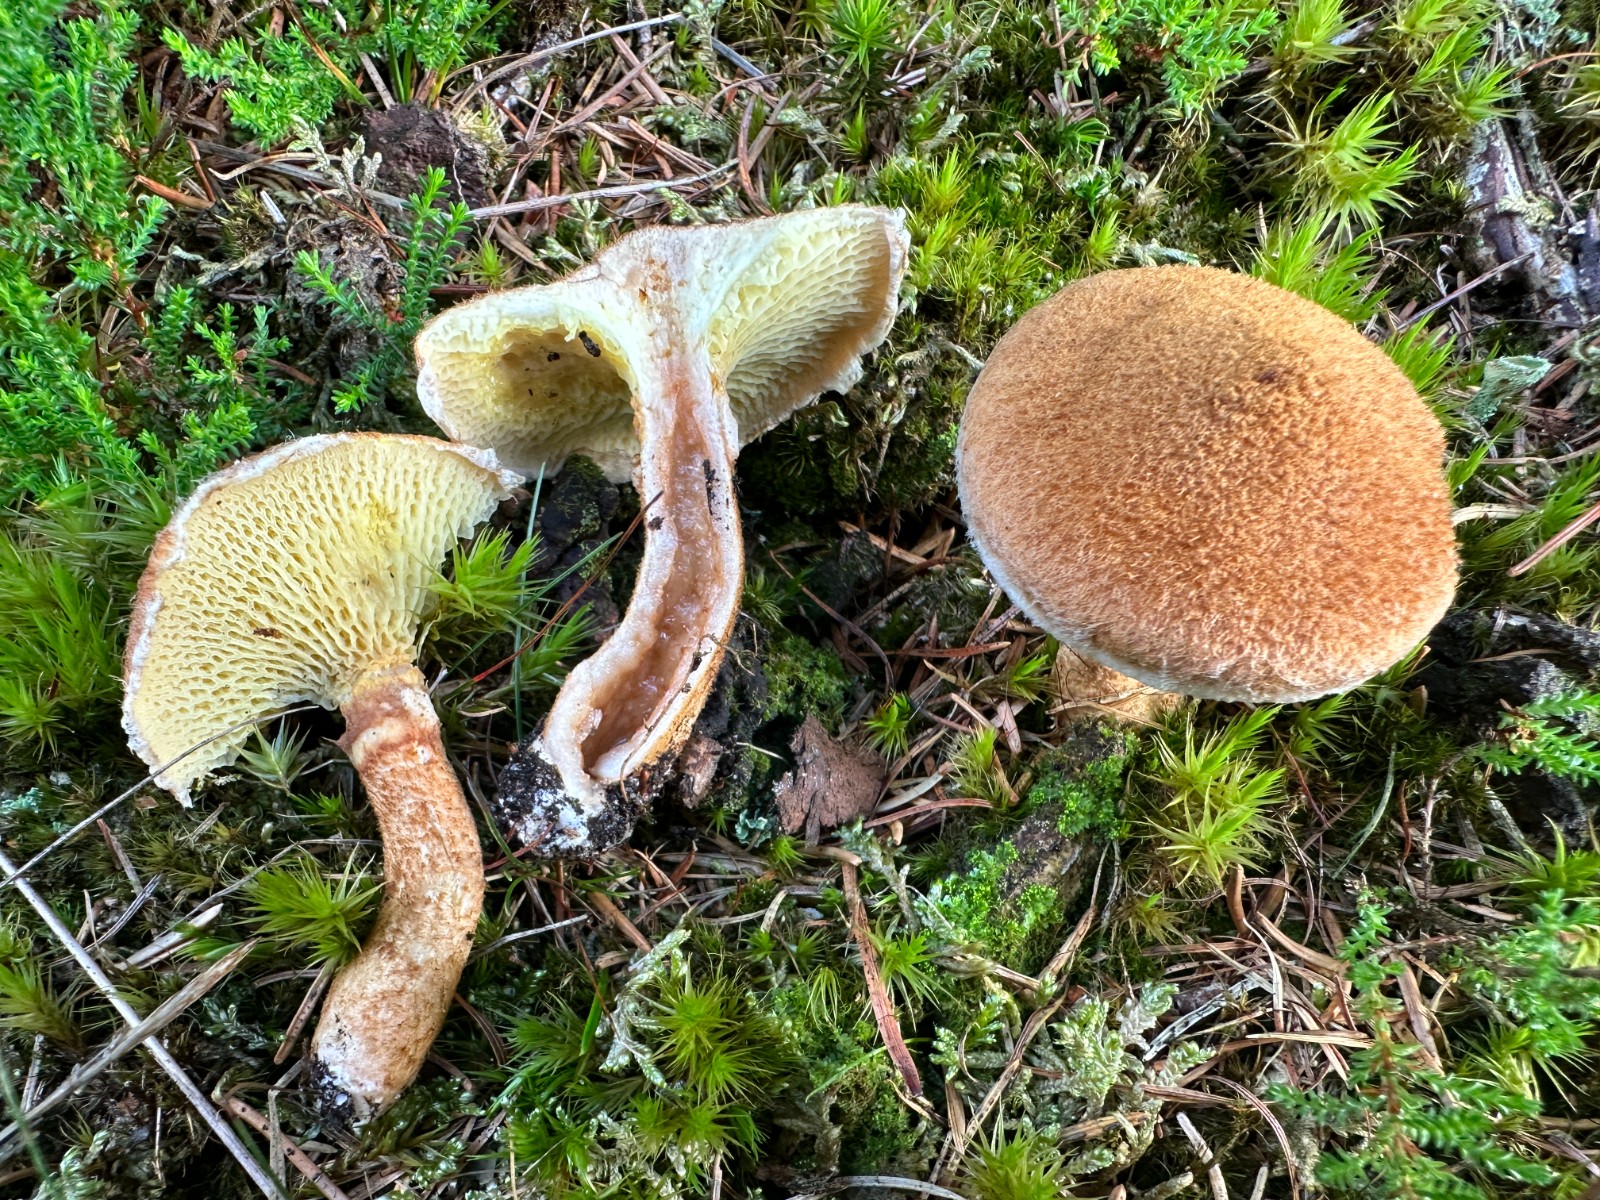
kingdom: Fungi
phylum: Basidiomycota
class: Agaricomycetes
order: Boletales
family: Suillaceae
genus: Suillus
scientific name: Suillus cavipes
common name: hulstokket slimrørhat
